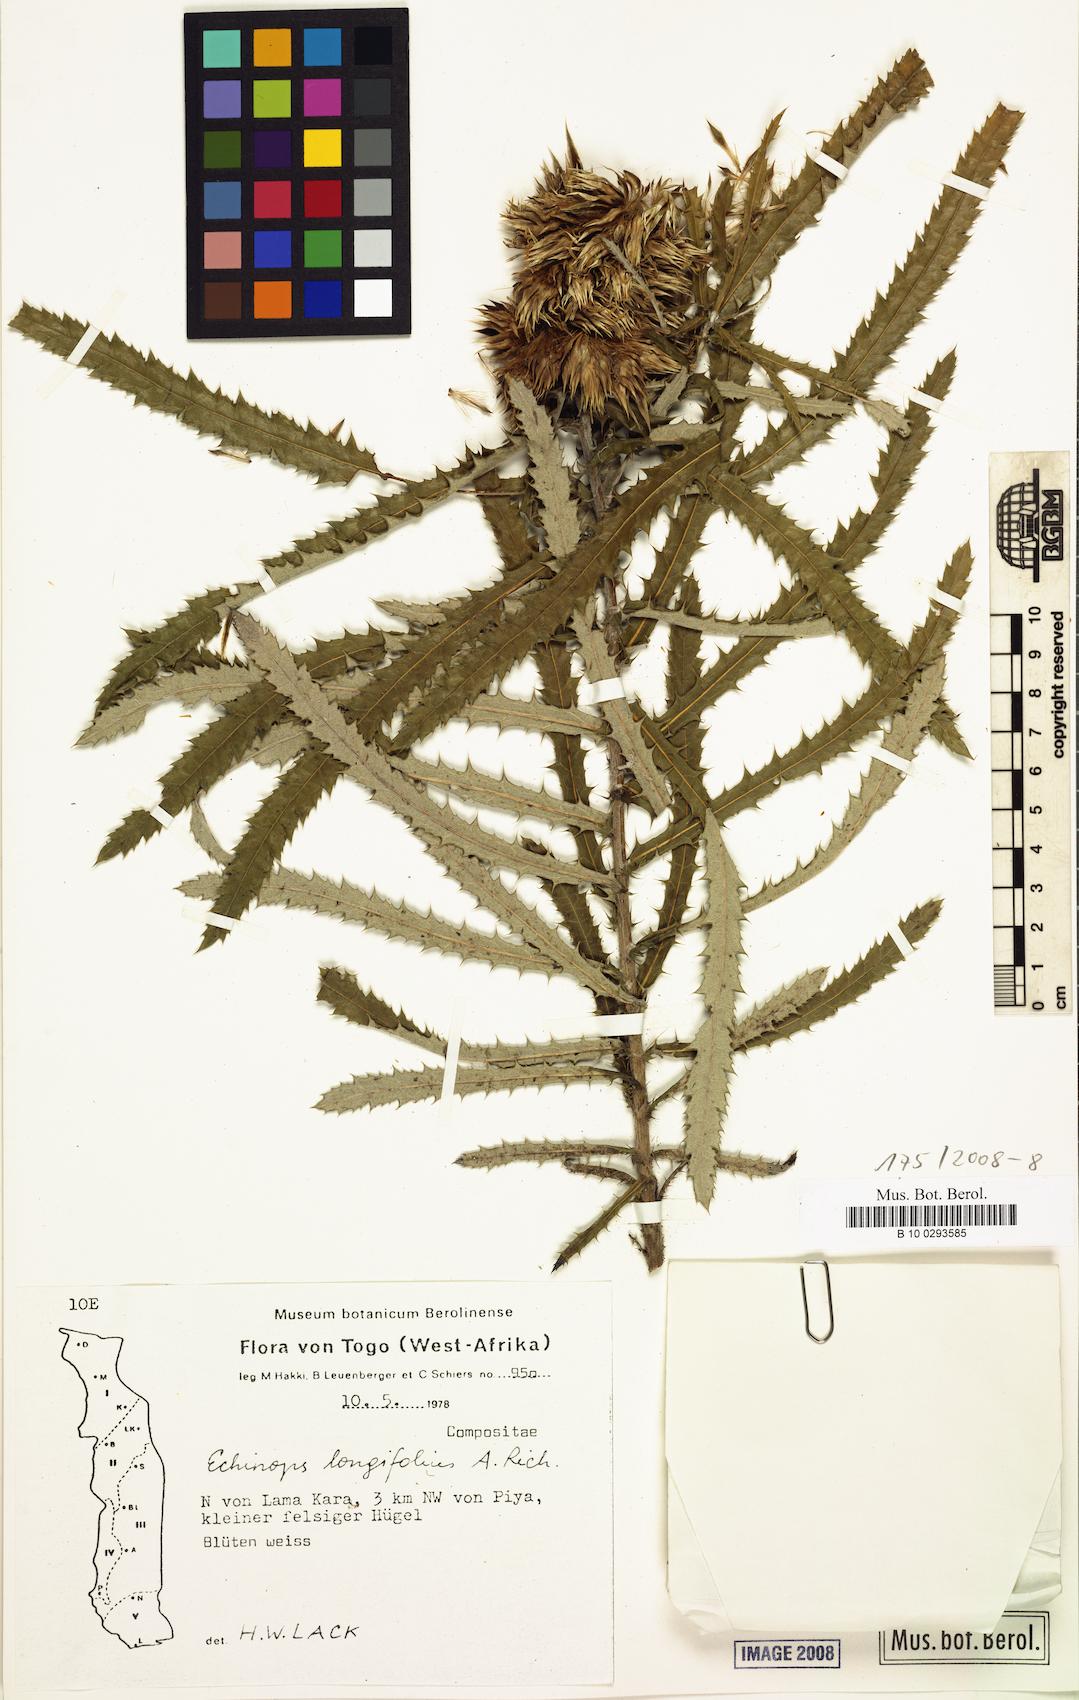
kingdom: Plantae
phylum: Tracheophyta
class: Magnoliopsida
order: Asterales
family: Asteraceae
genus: Echinops
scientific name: Echinops longifolius
